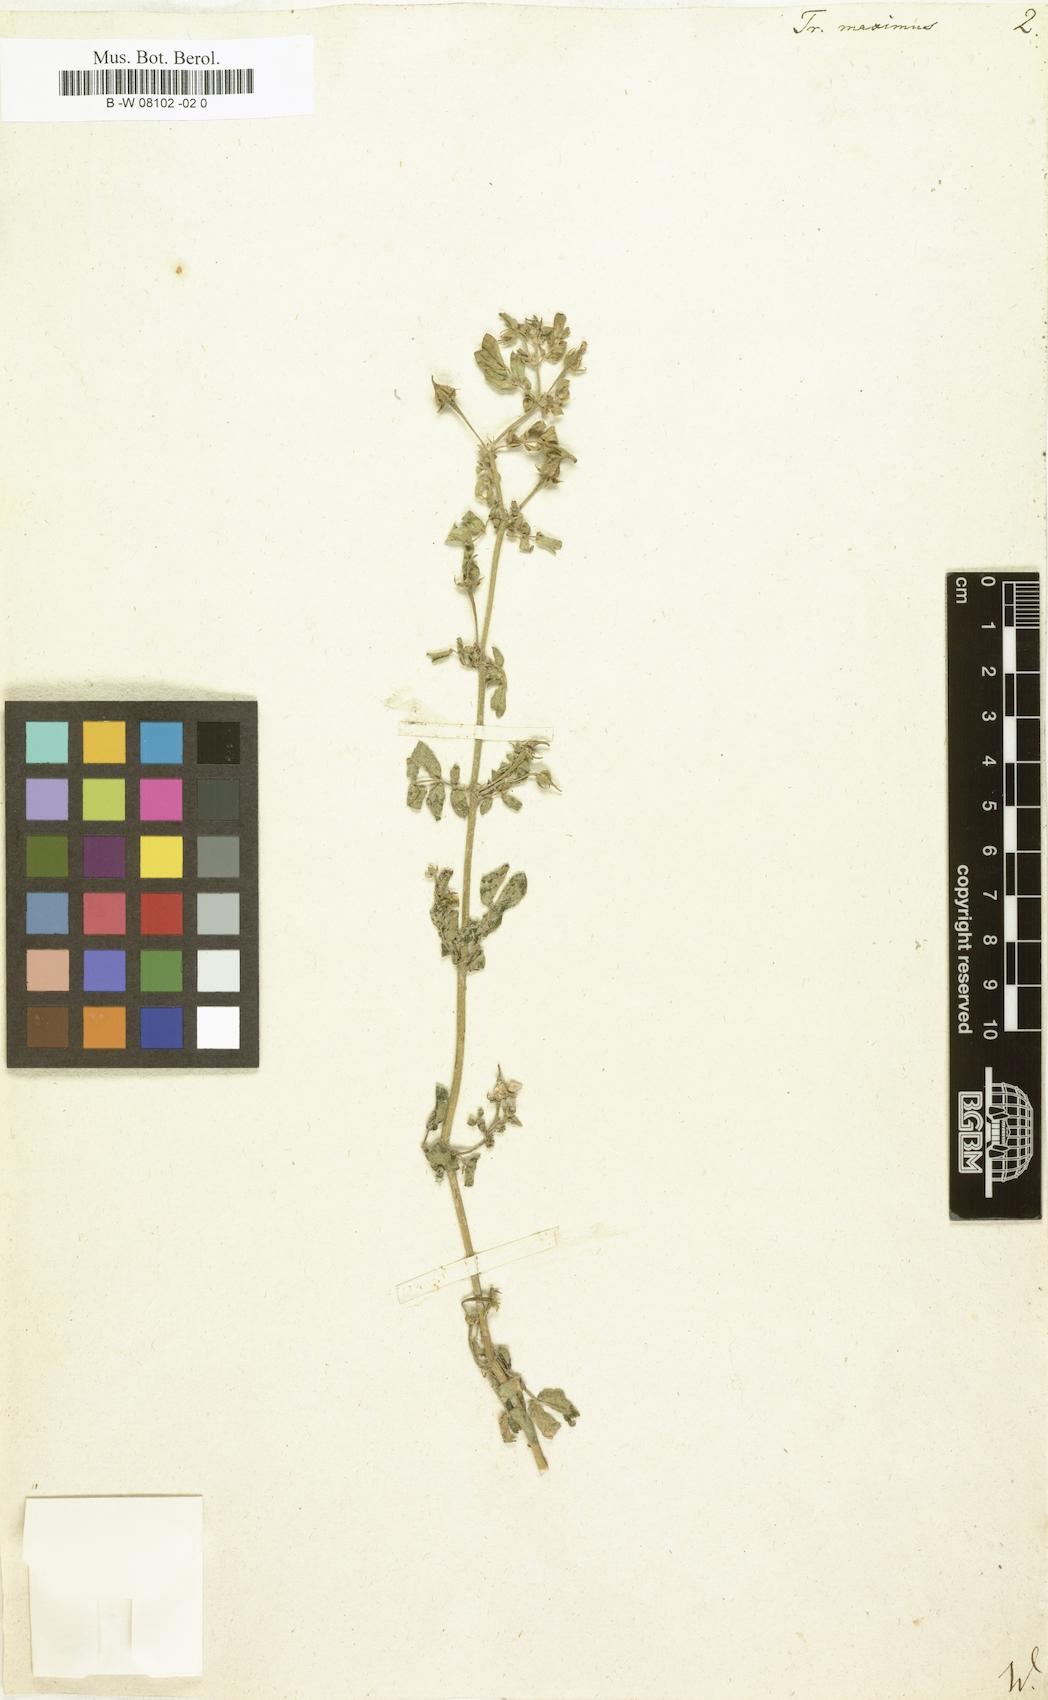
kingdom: Plantae
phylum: Tracheophyta
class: Magnoliopsida
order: Zygophyllales
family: Zygophyllaceae
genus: Kallstroemia
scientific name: Kallstroemia maxima
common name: Big caltropa
